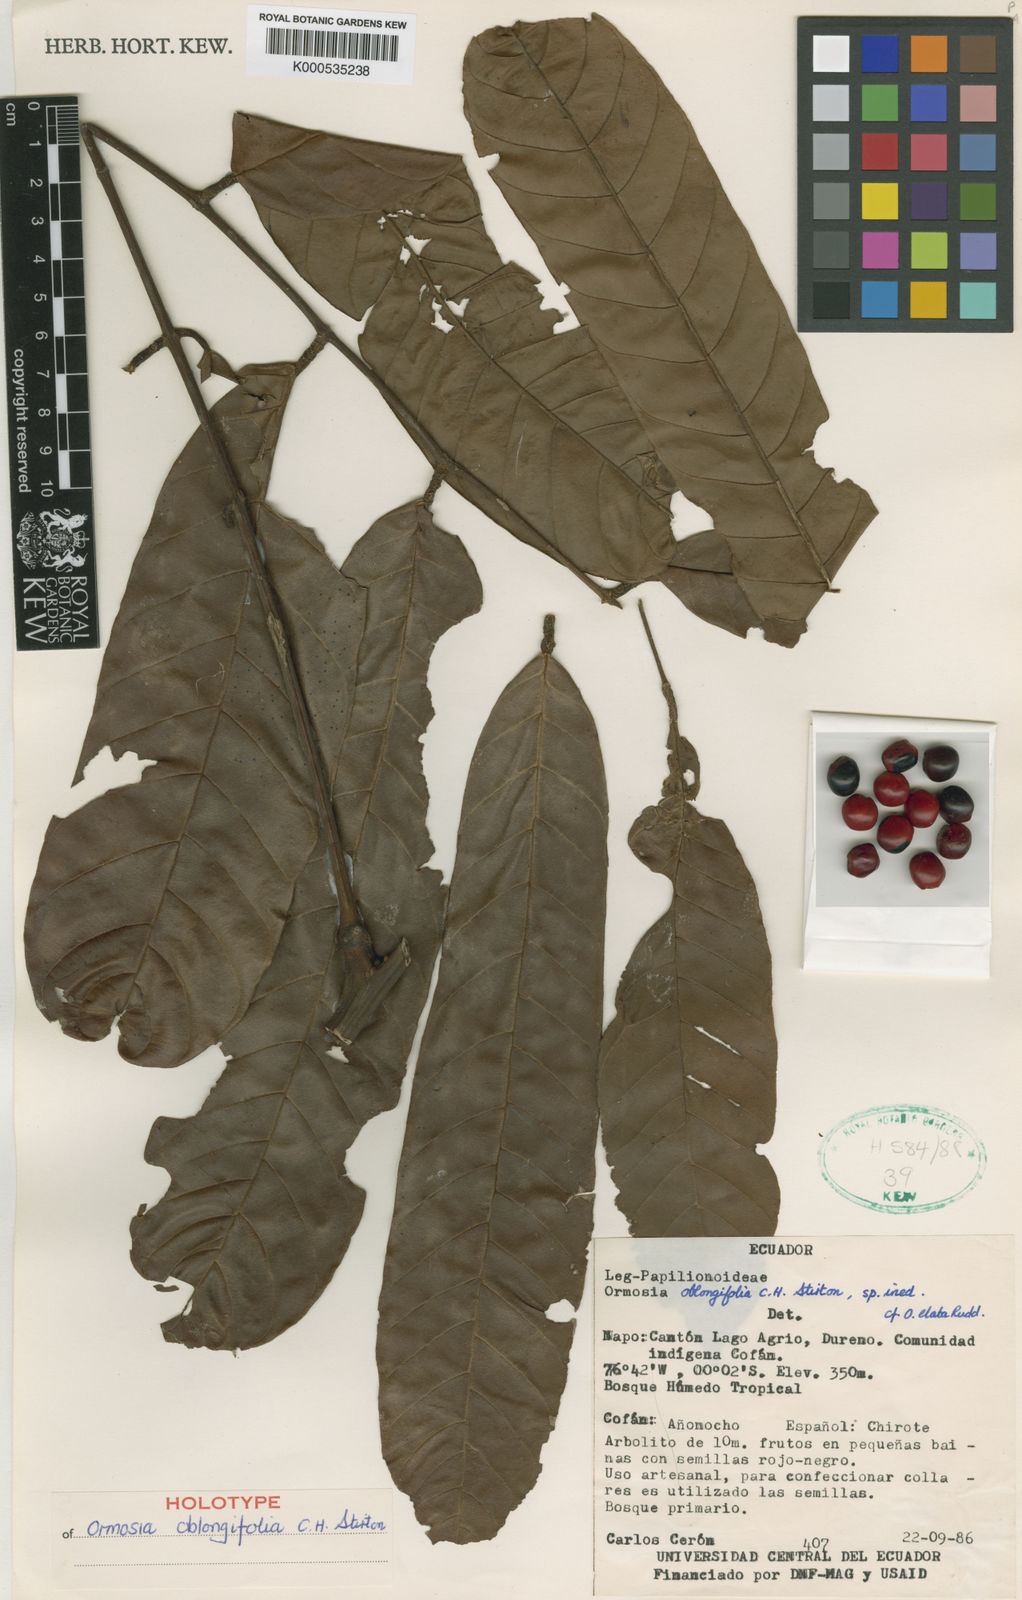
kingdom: Plantae
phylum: Tracheophyta
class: Magnoliopsida
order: Fabales
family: Fabaceae
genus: Ormosia
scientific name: Ormosia
